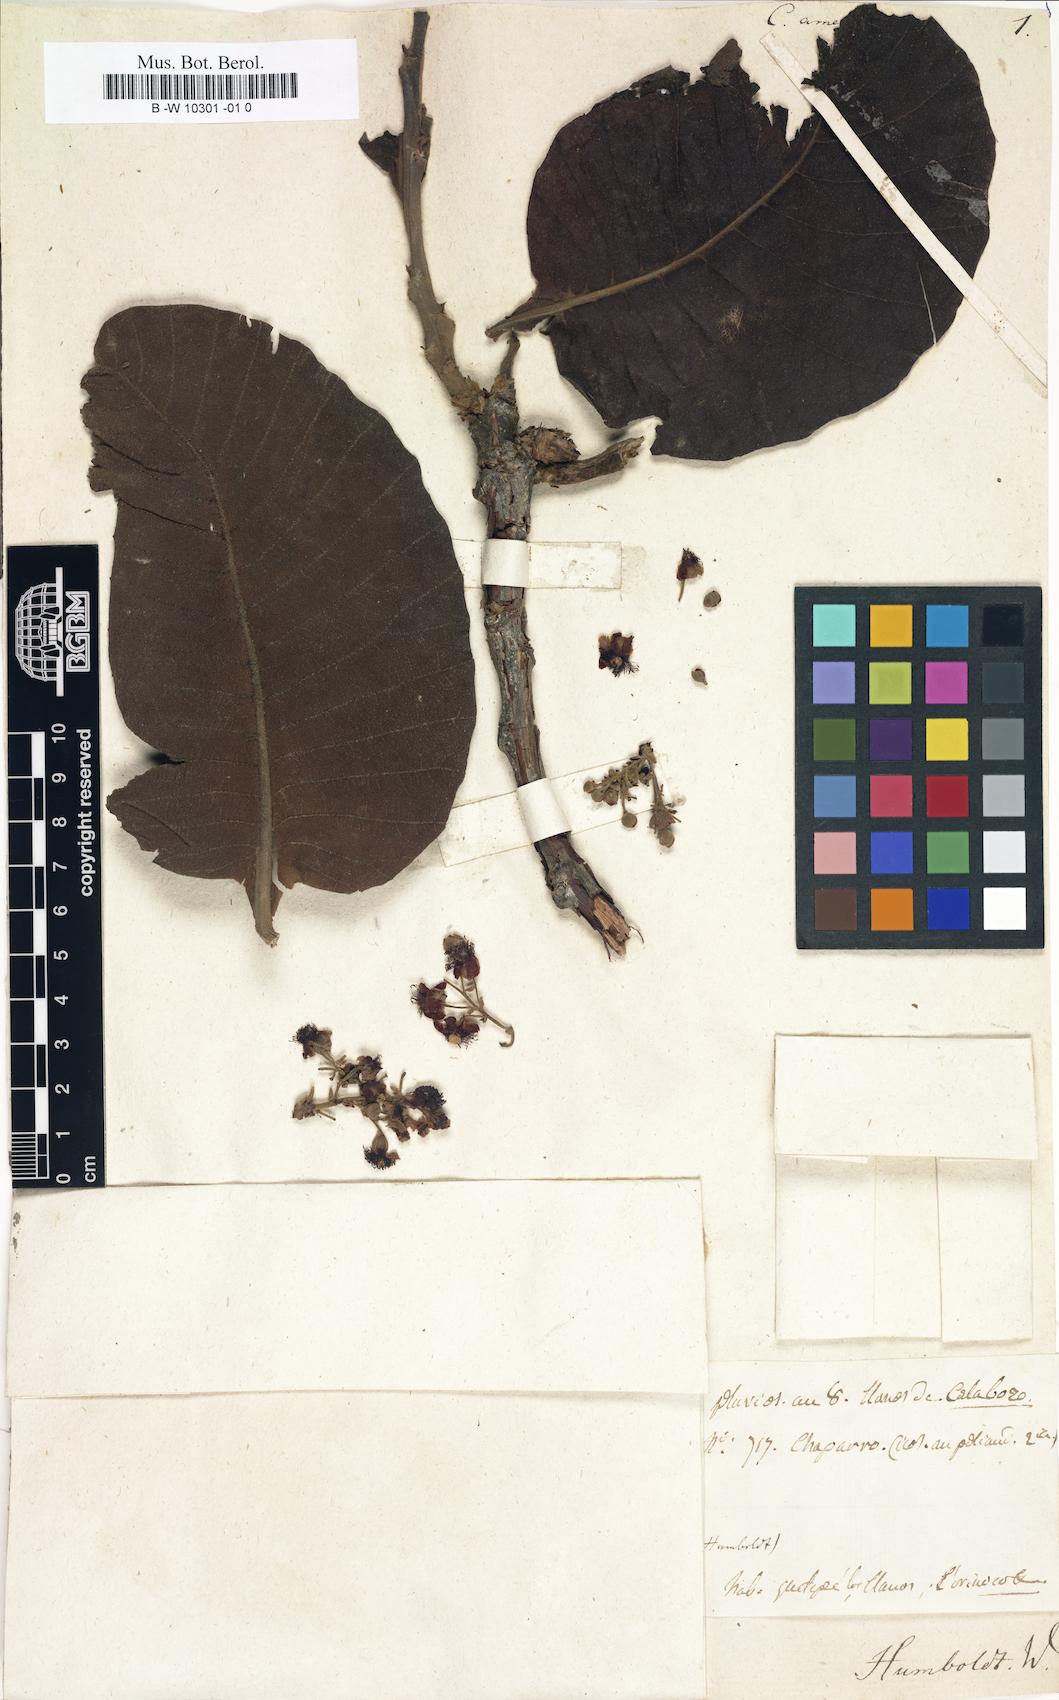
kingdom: Plantae
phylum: Tracheophyta
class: Magnoliopsida
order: Dilleniales
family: Dilleniaceae
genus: Curatella
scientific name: Curatella americana
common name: Sandpaper tree
